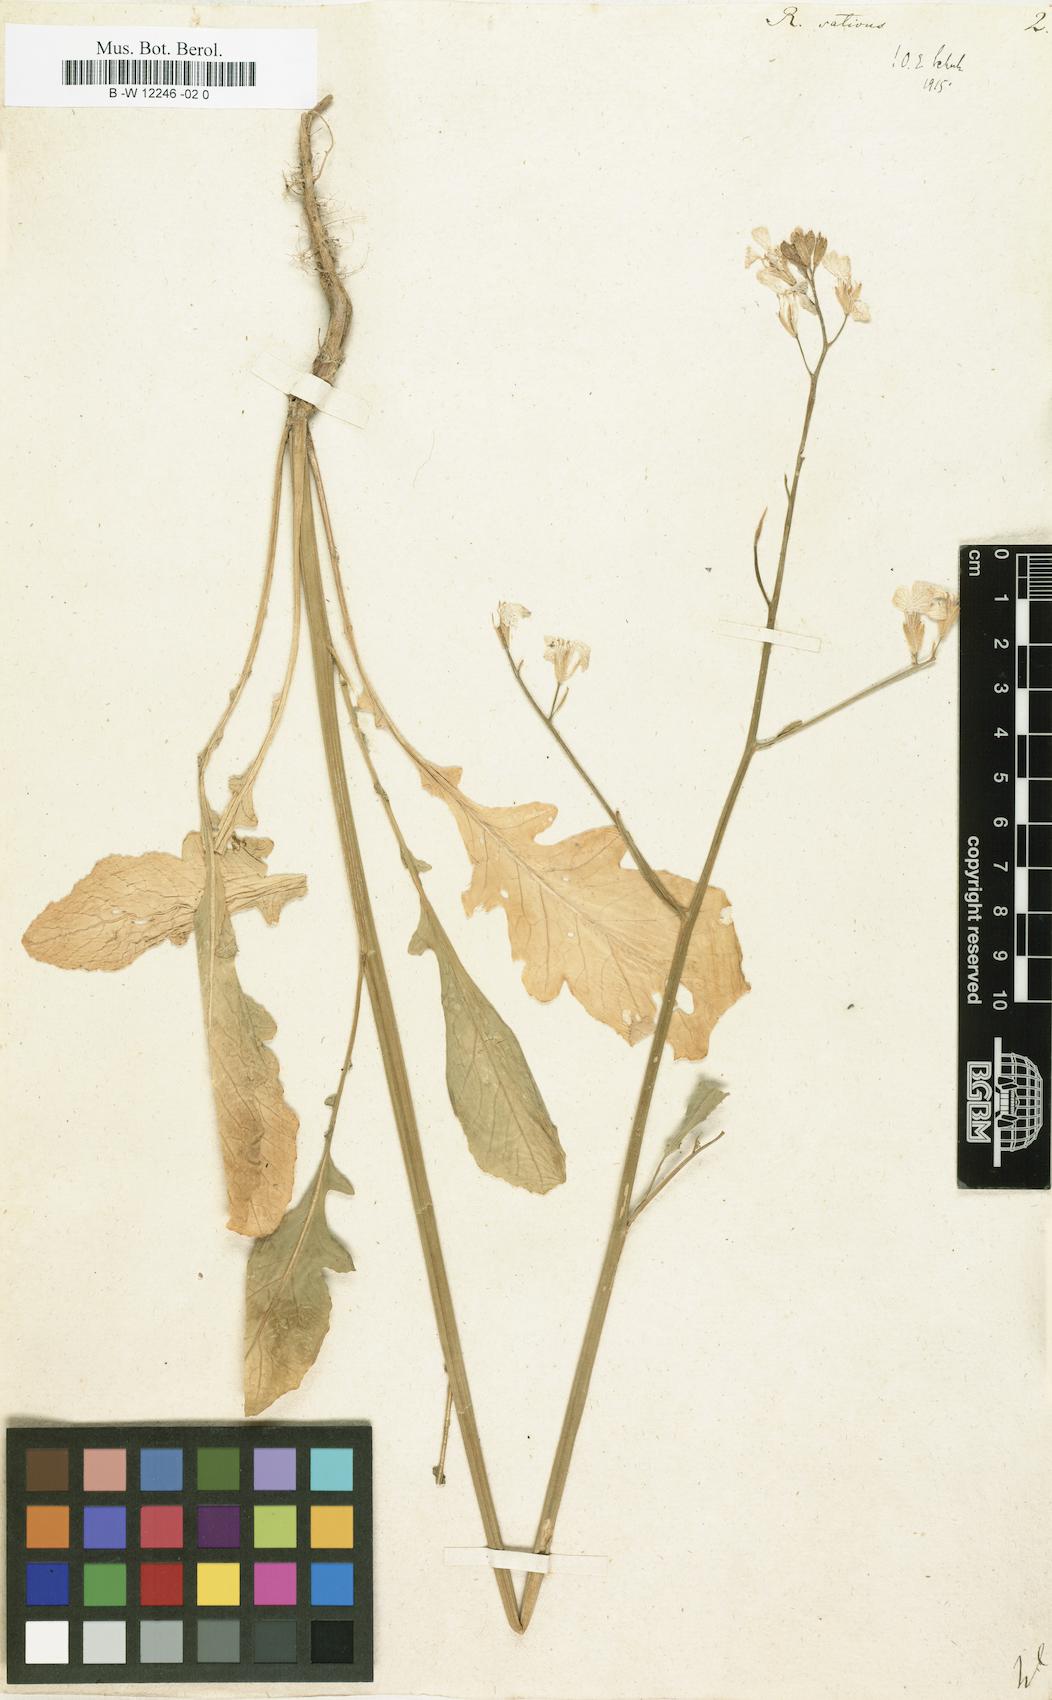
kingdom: Plantae
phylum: Tracheophyta
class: Magnoliopsida
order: Brassicales
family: Brassicaceae
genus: Raphanus
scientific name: Raphanus sativus
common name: Cultivated radish
